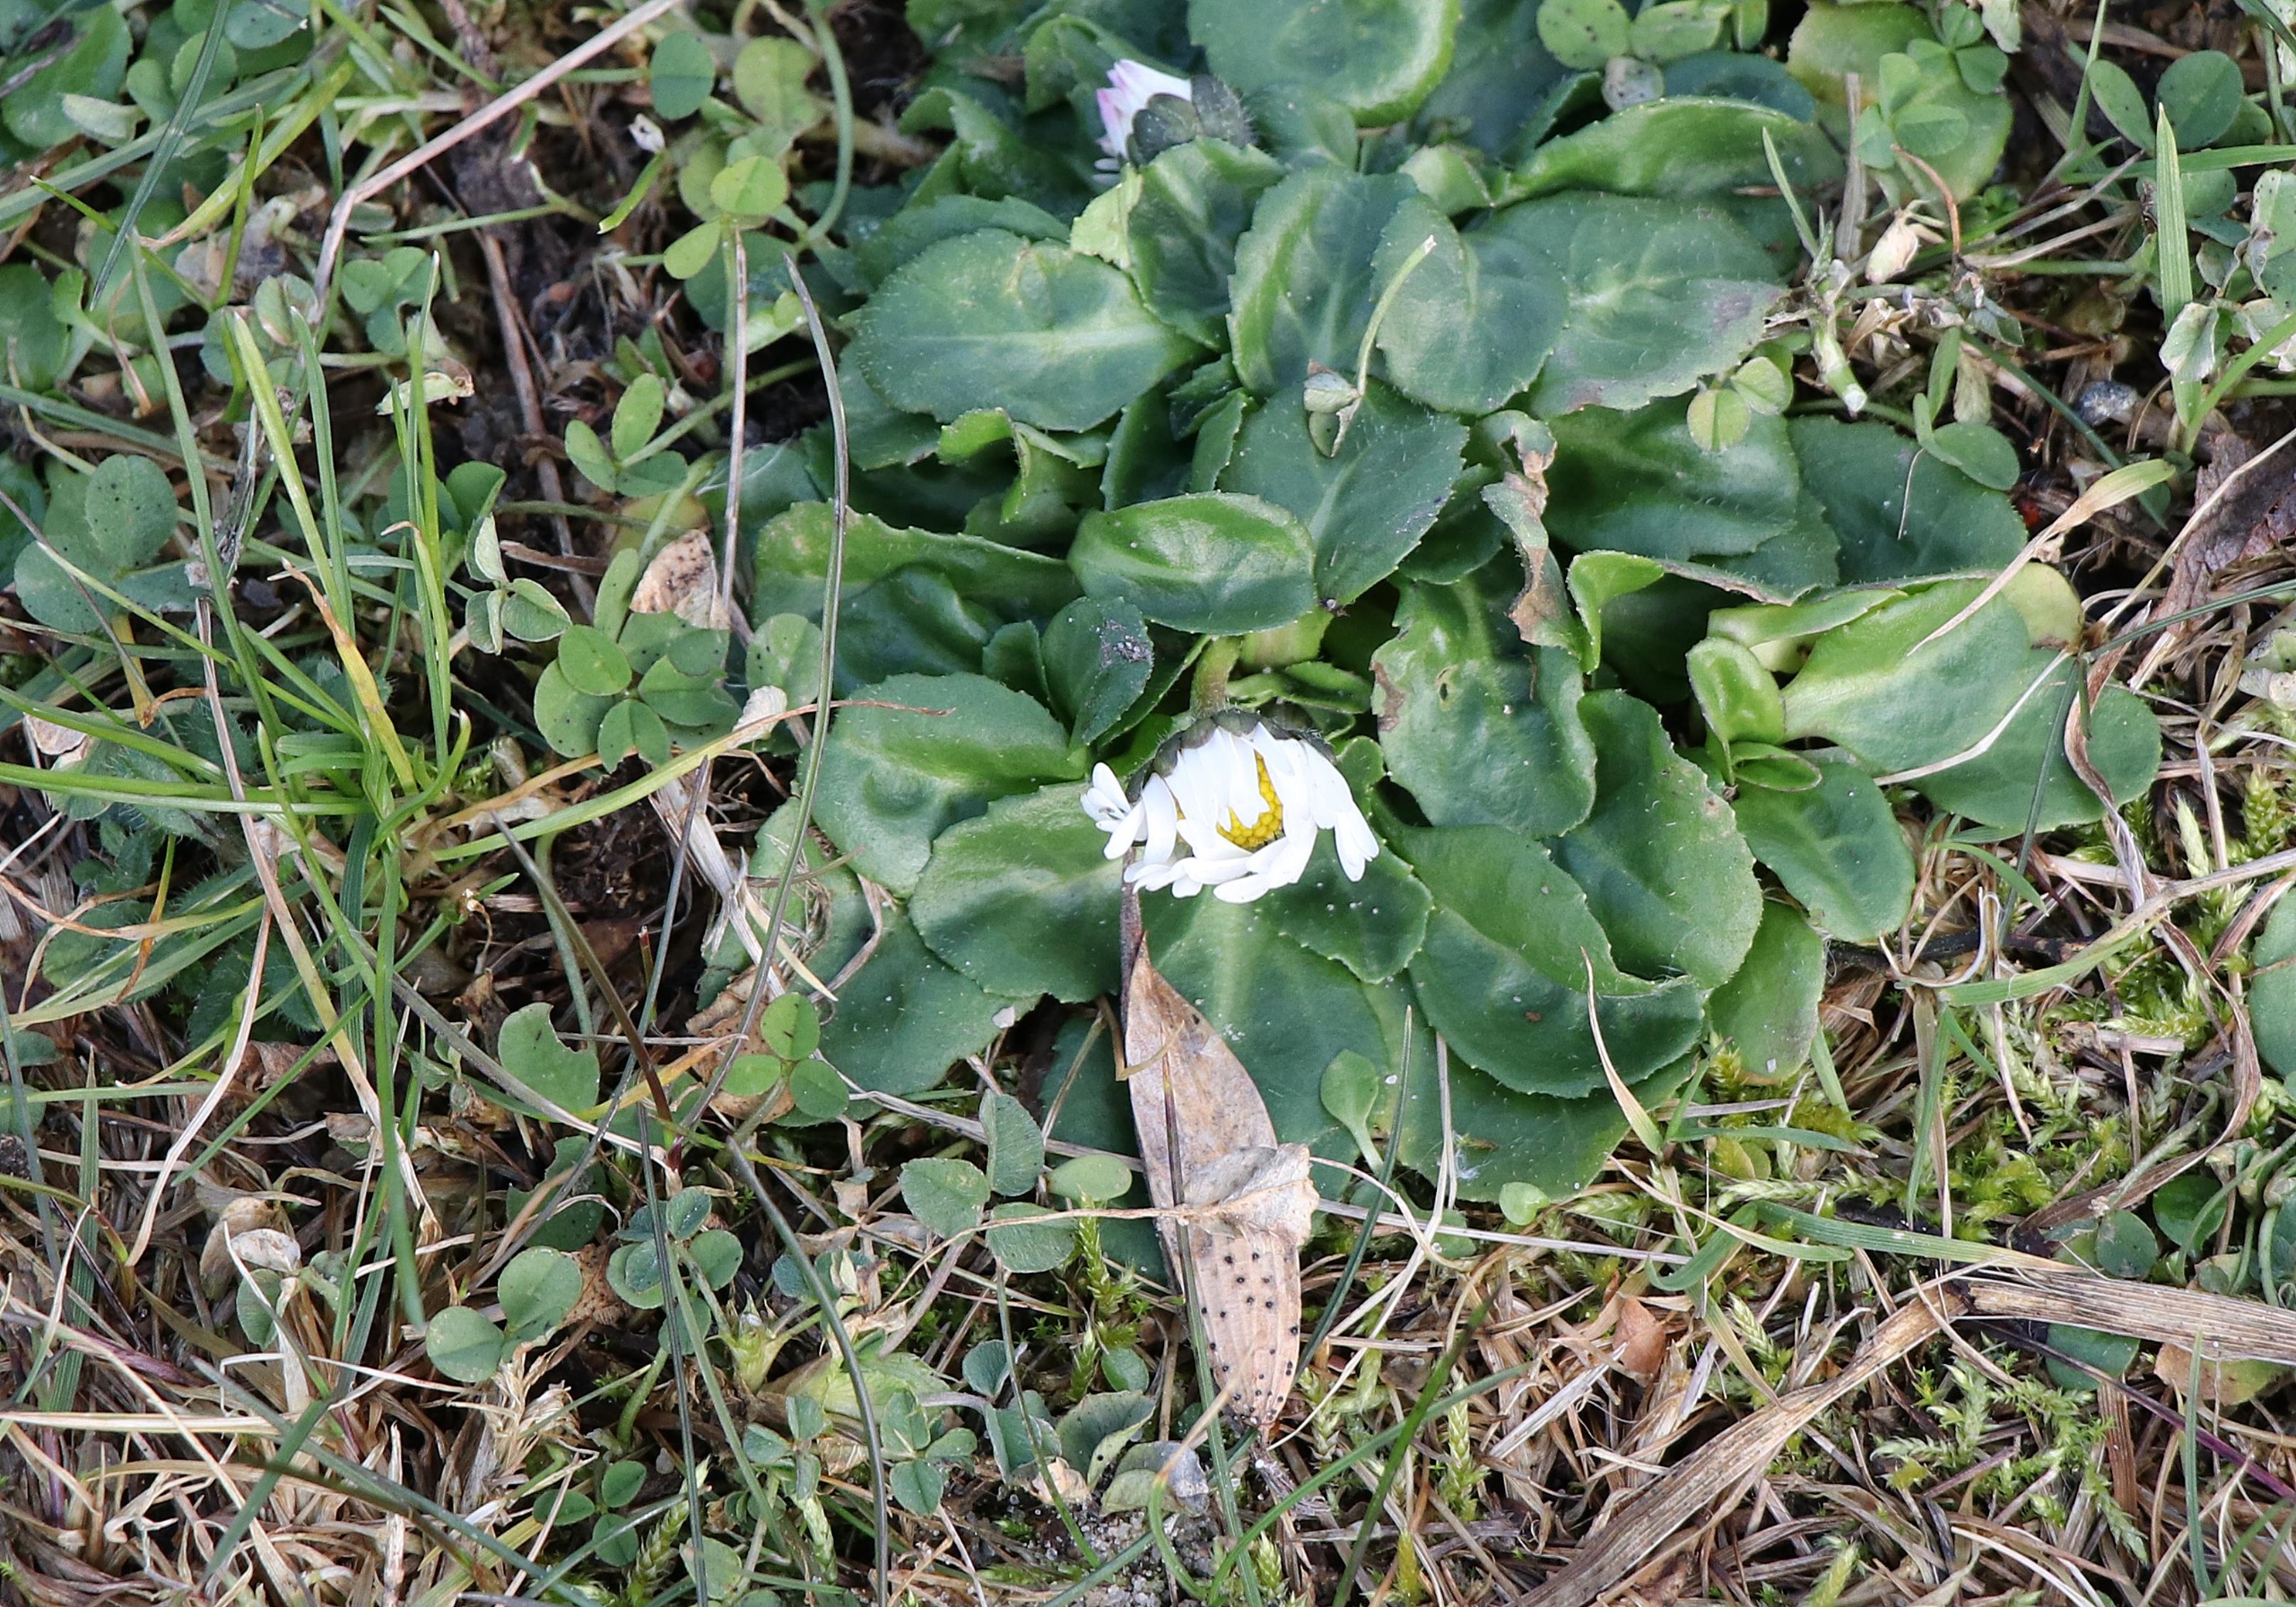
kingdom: Plantae
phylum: Tracheophyta
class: Magnoliopsida
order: Asterales
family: Asteraceae
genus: Bellis
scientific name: Bellis perennis
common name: Tusindfryd
